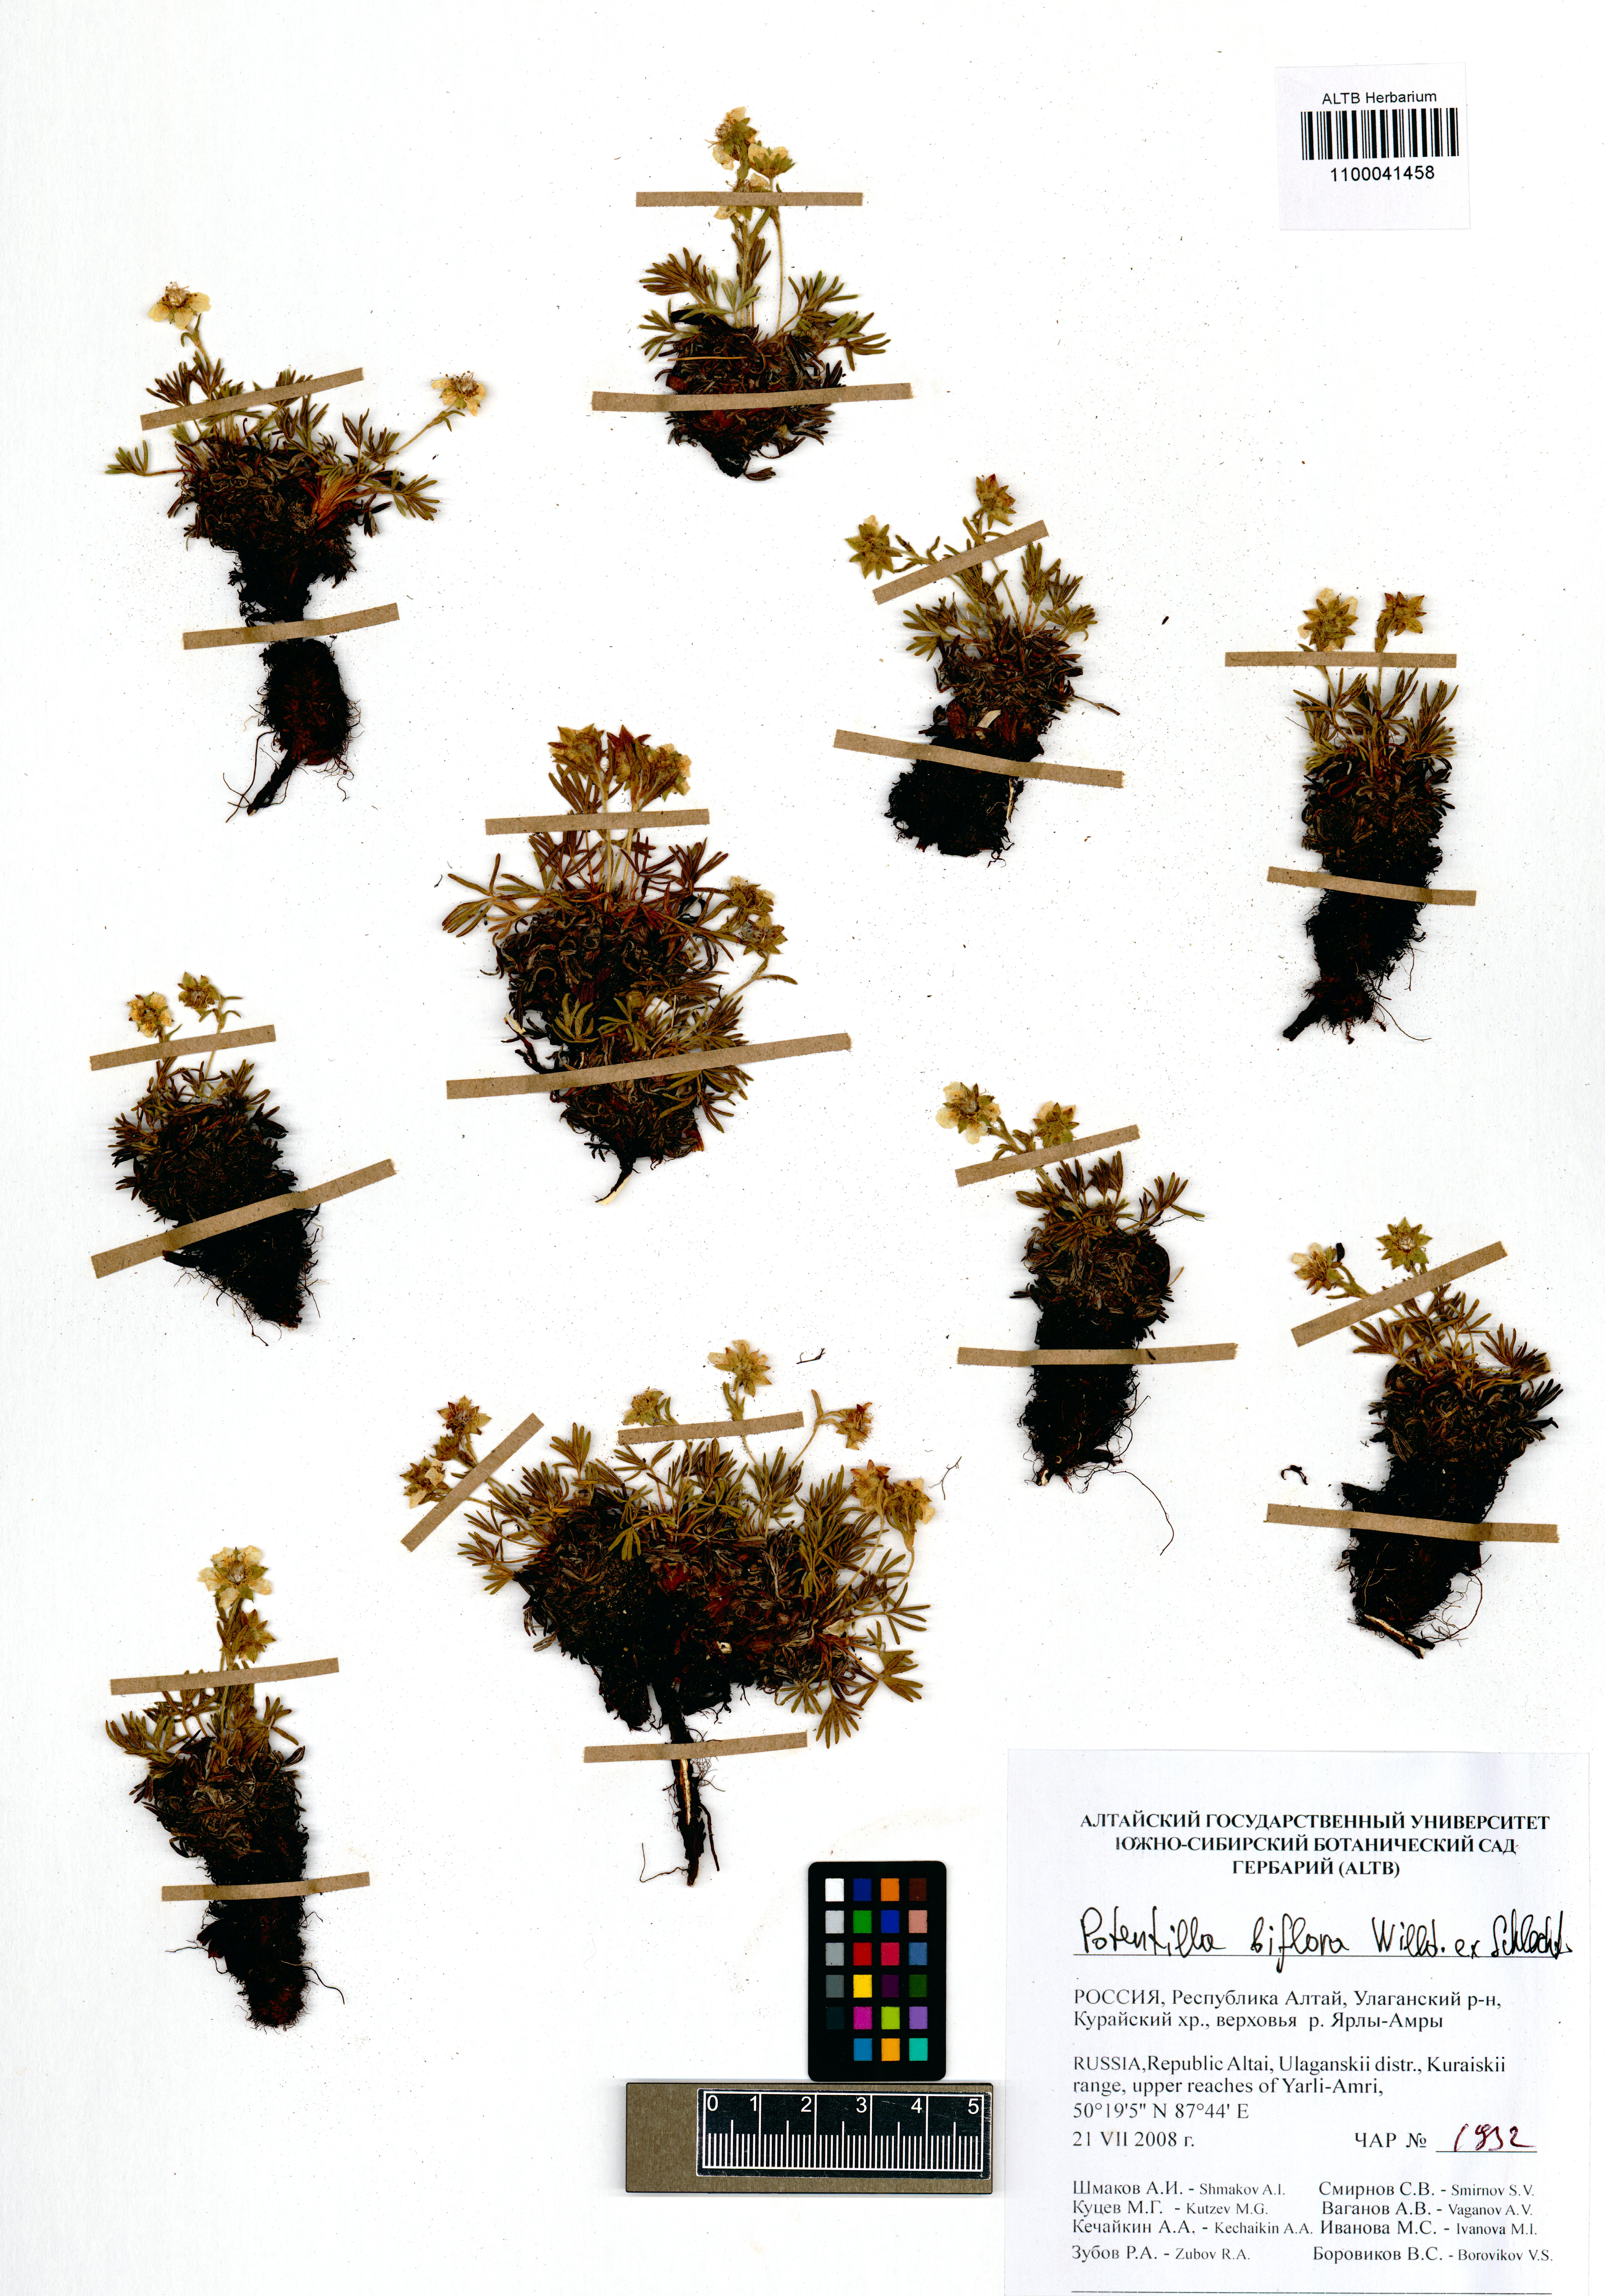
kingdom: Plantae
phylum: Tracheophyta
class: Magnoliopsida
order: Rosales
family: Rosaceae
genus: Potentilla
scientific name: Potentilla biflora
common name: Two-flowered cinquefoil
